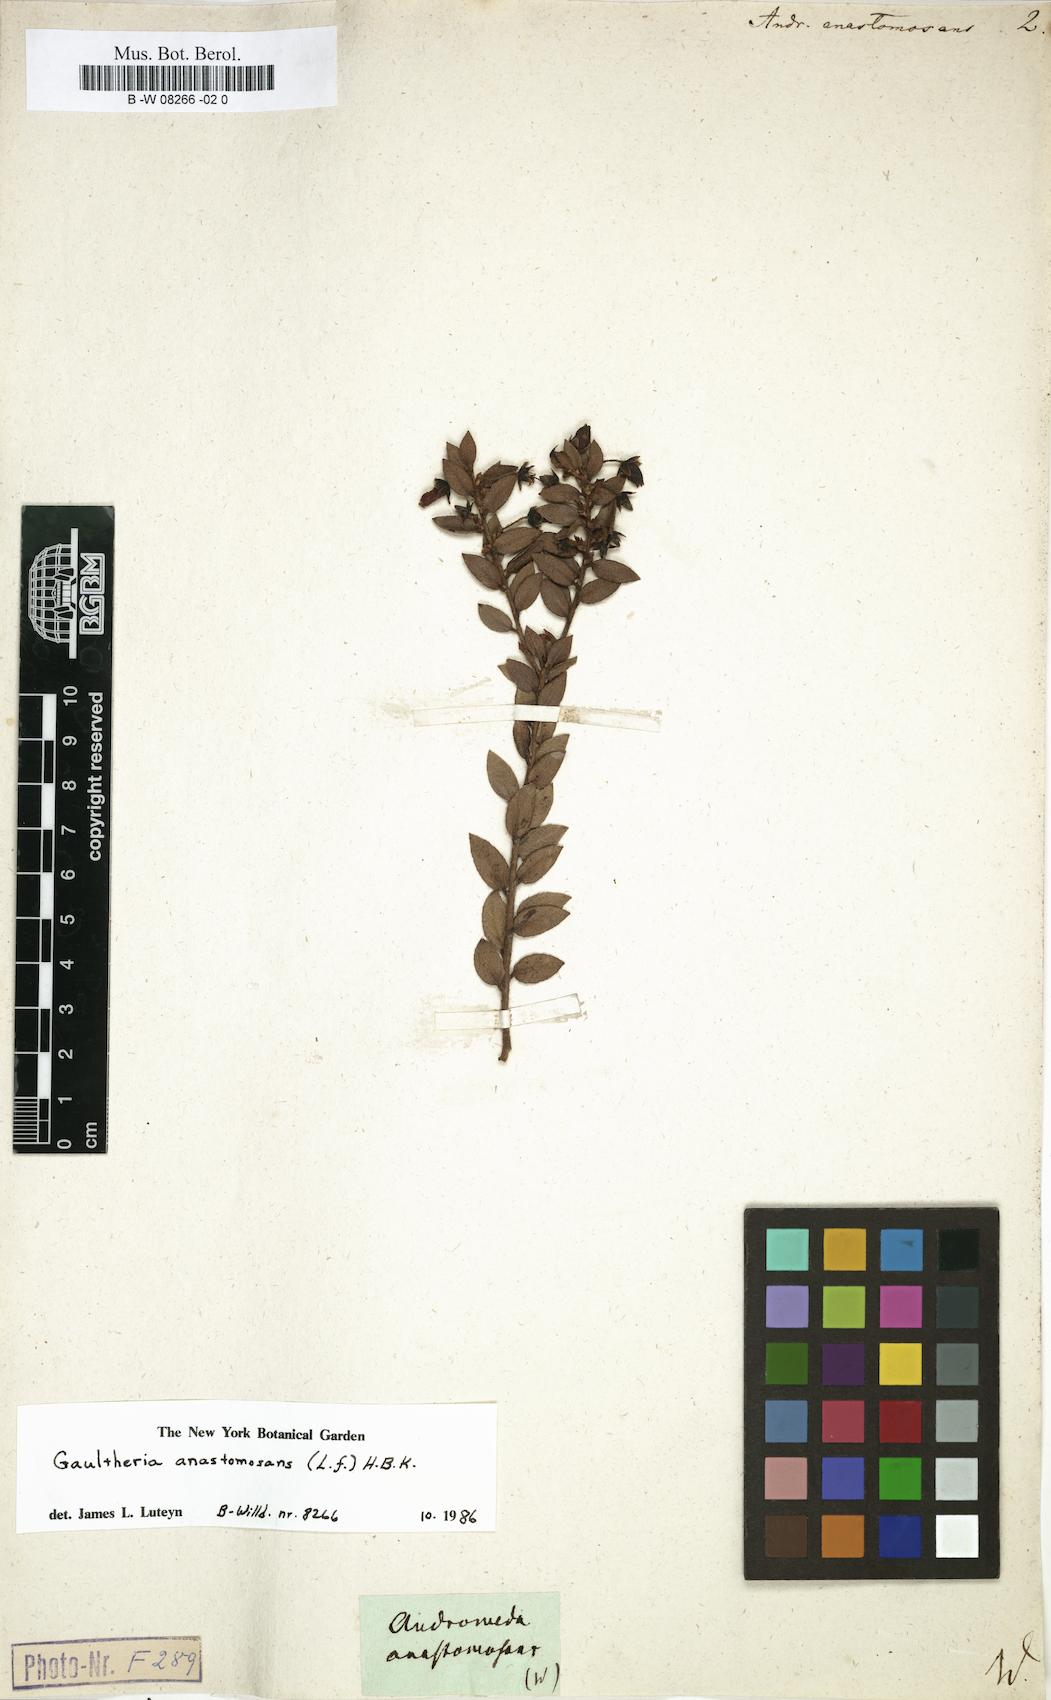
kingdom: Plantae
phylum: Tracheophyta
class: Magnoliopsida
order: Ericales
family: Ericaceae
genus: Gaultheria
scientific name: Gaultheria anastomosans
